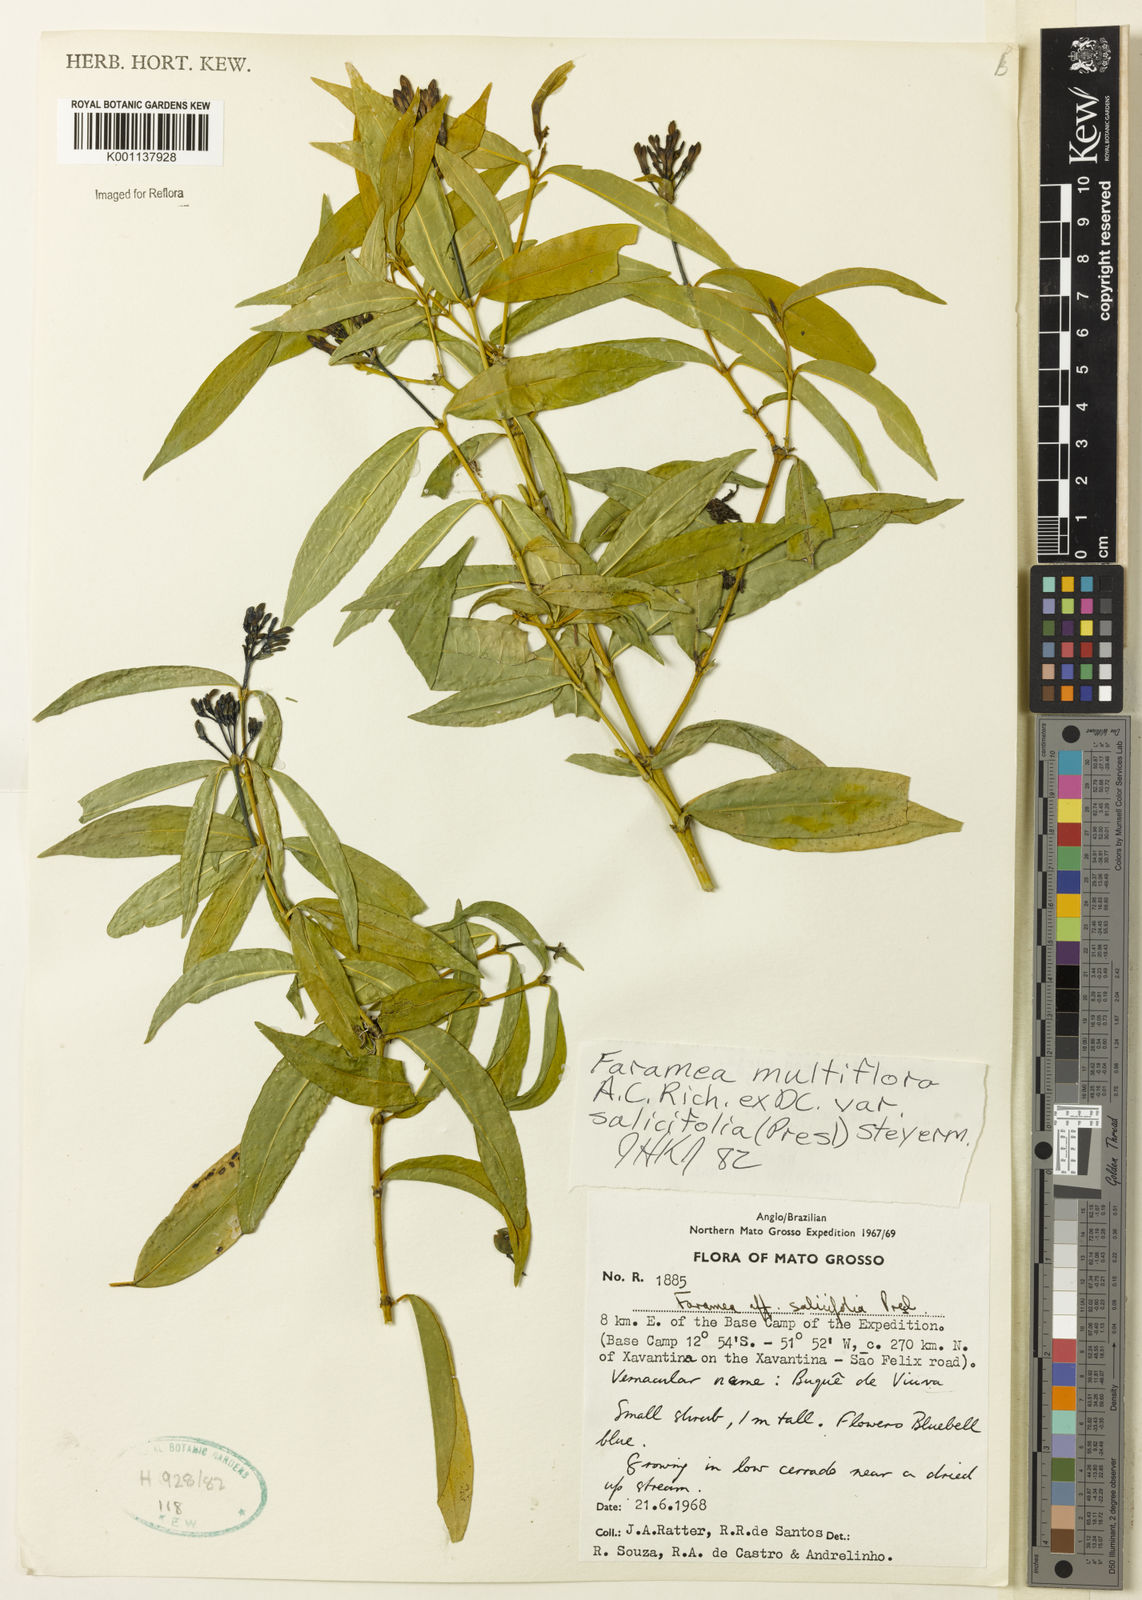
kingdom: Plantae
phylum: Tracheophyta
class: Magnoliopsida
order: Gentianales
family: Rubiaceae
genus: Faramea
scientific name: Faramea multiflora
